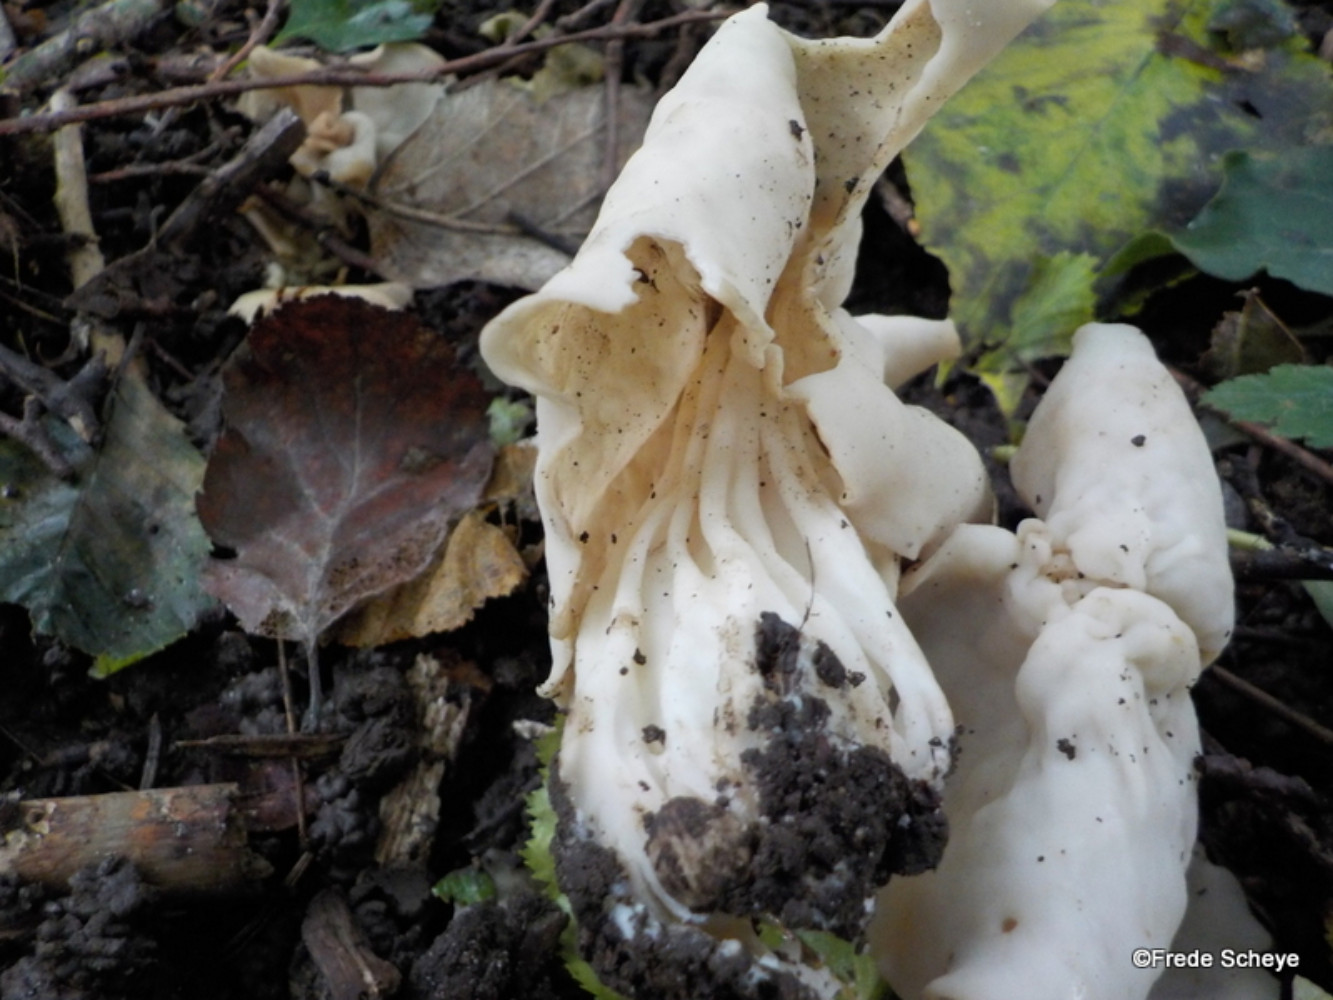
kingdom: Fungi
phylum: Ascomycota
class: Pezizomycetes
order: Pezizales
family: Helvellaceae
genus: Helvella
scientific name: Helvella crispa
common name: kruset foldhat
